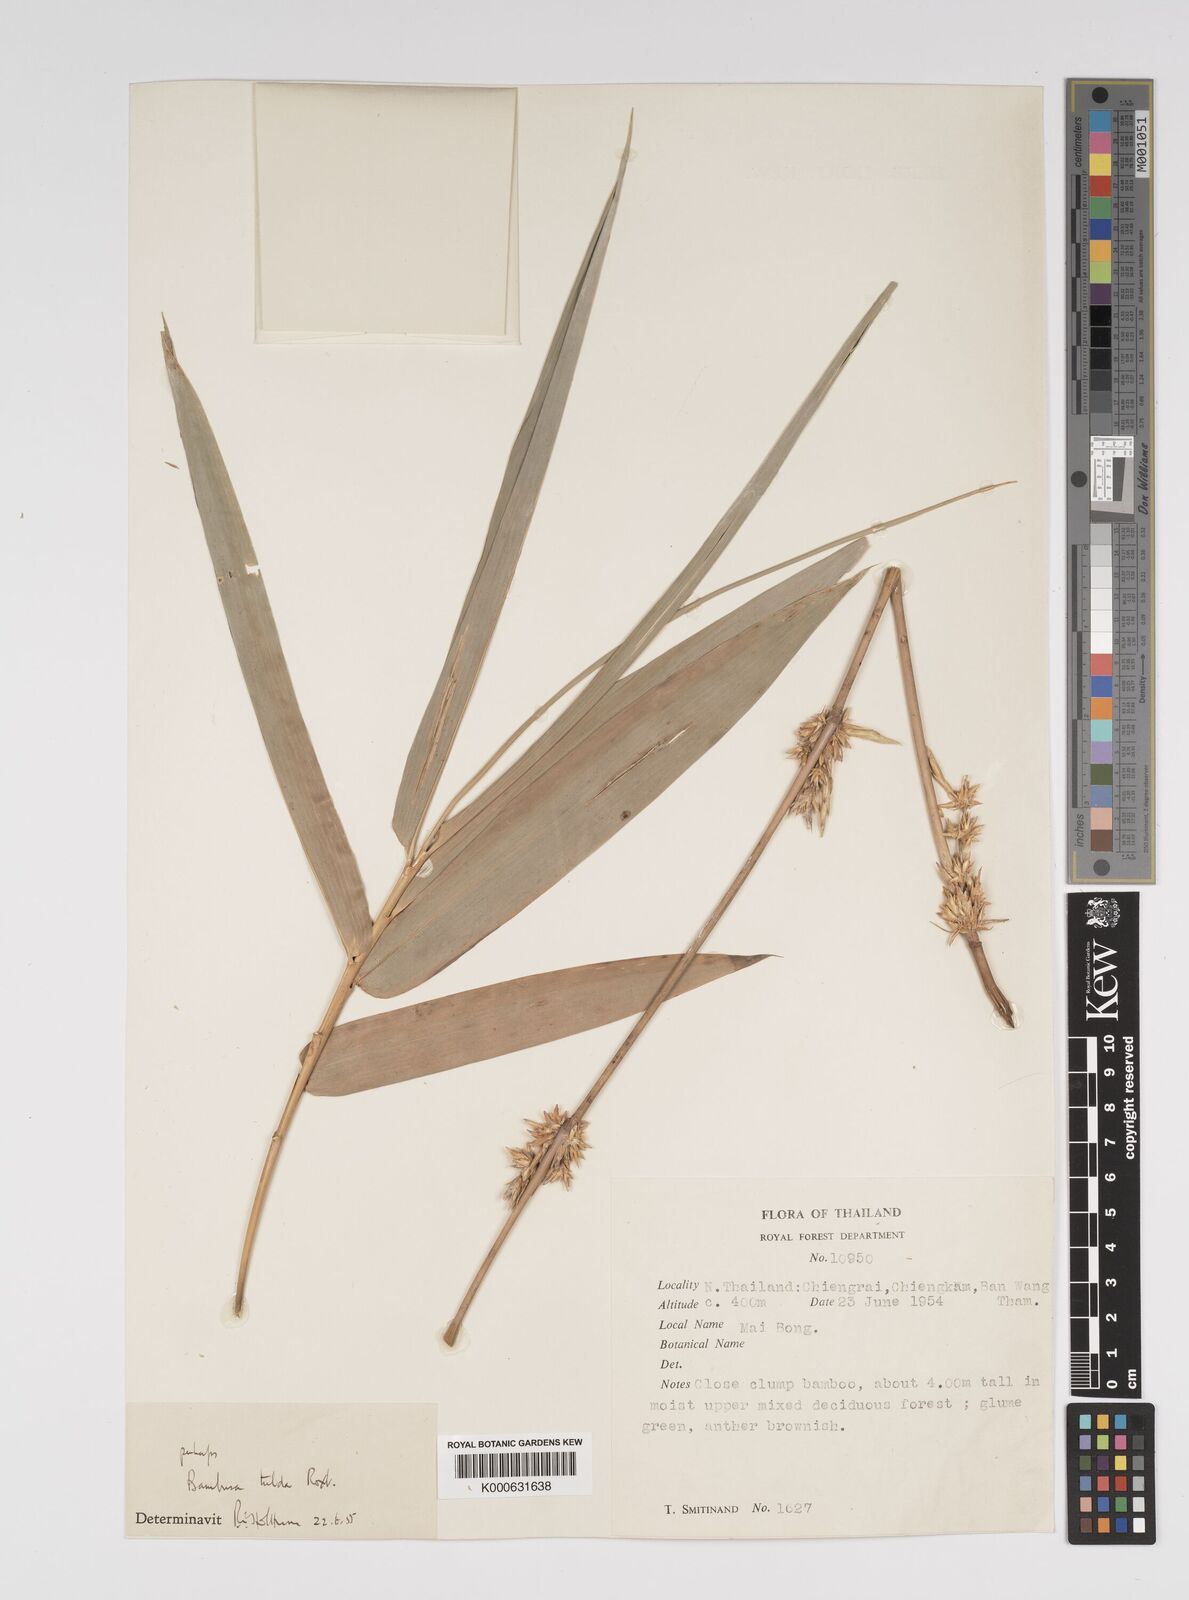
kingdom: Plantae
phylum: Tracheophyta
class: Liliopsida
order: Poales
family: Poaceae
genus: Bambusa
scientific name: Bambusa
